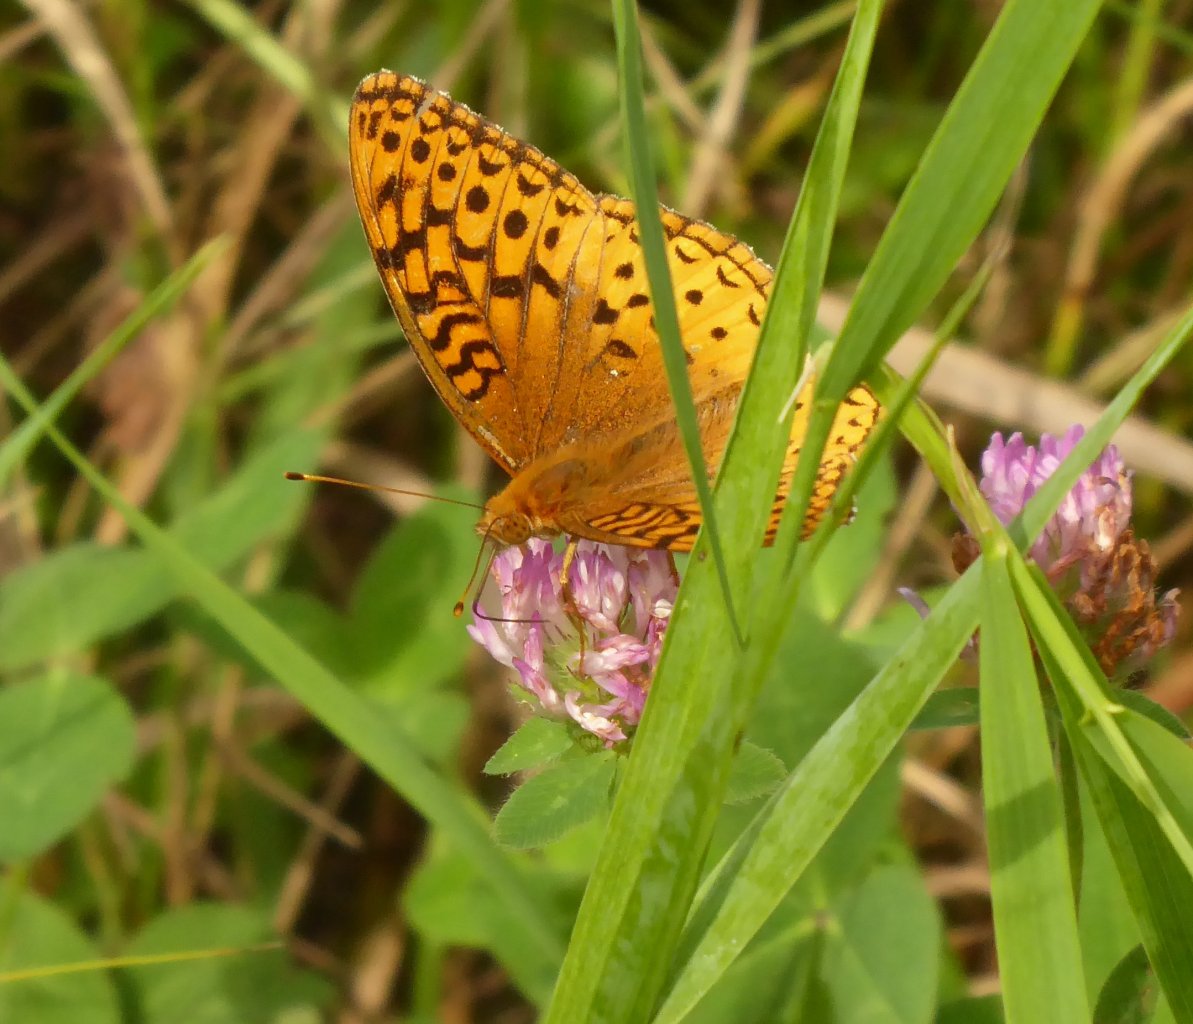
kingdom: Animalia
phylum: Arthropoda
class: Insecta
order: Lepidoptera
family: Nymphalidae
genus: Speyeria
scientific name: Speyeria cybele
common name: Great Spangled Fritillary
